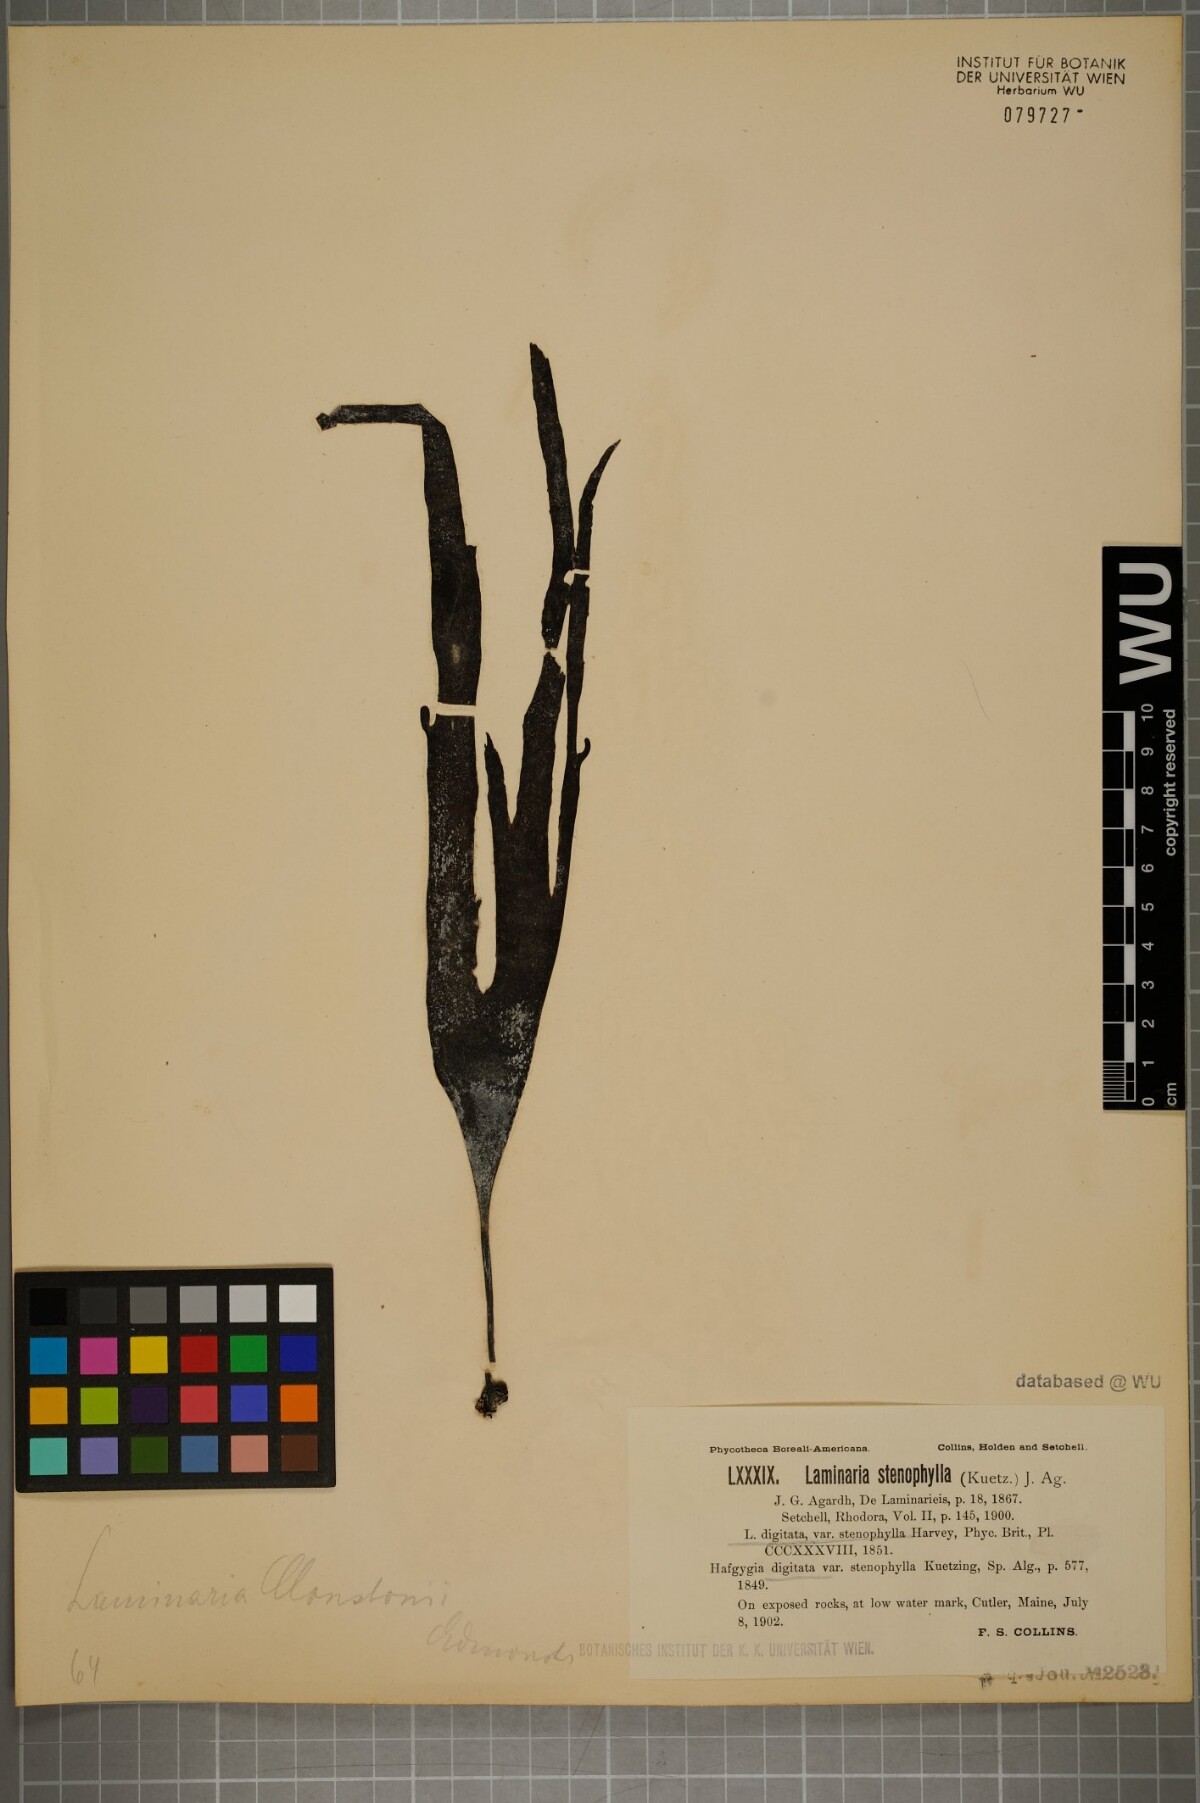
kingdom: Chromista
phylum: Ochrophyta
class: Phaeophyceae
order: Laminariales
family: Laminariaceae
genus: Laminaria
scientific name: Laminaria hyperborea
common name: Cuvie
